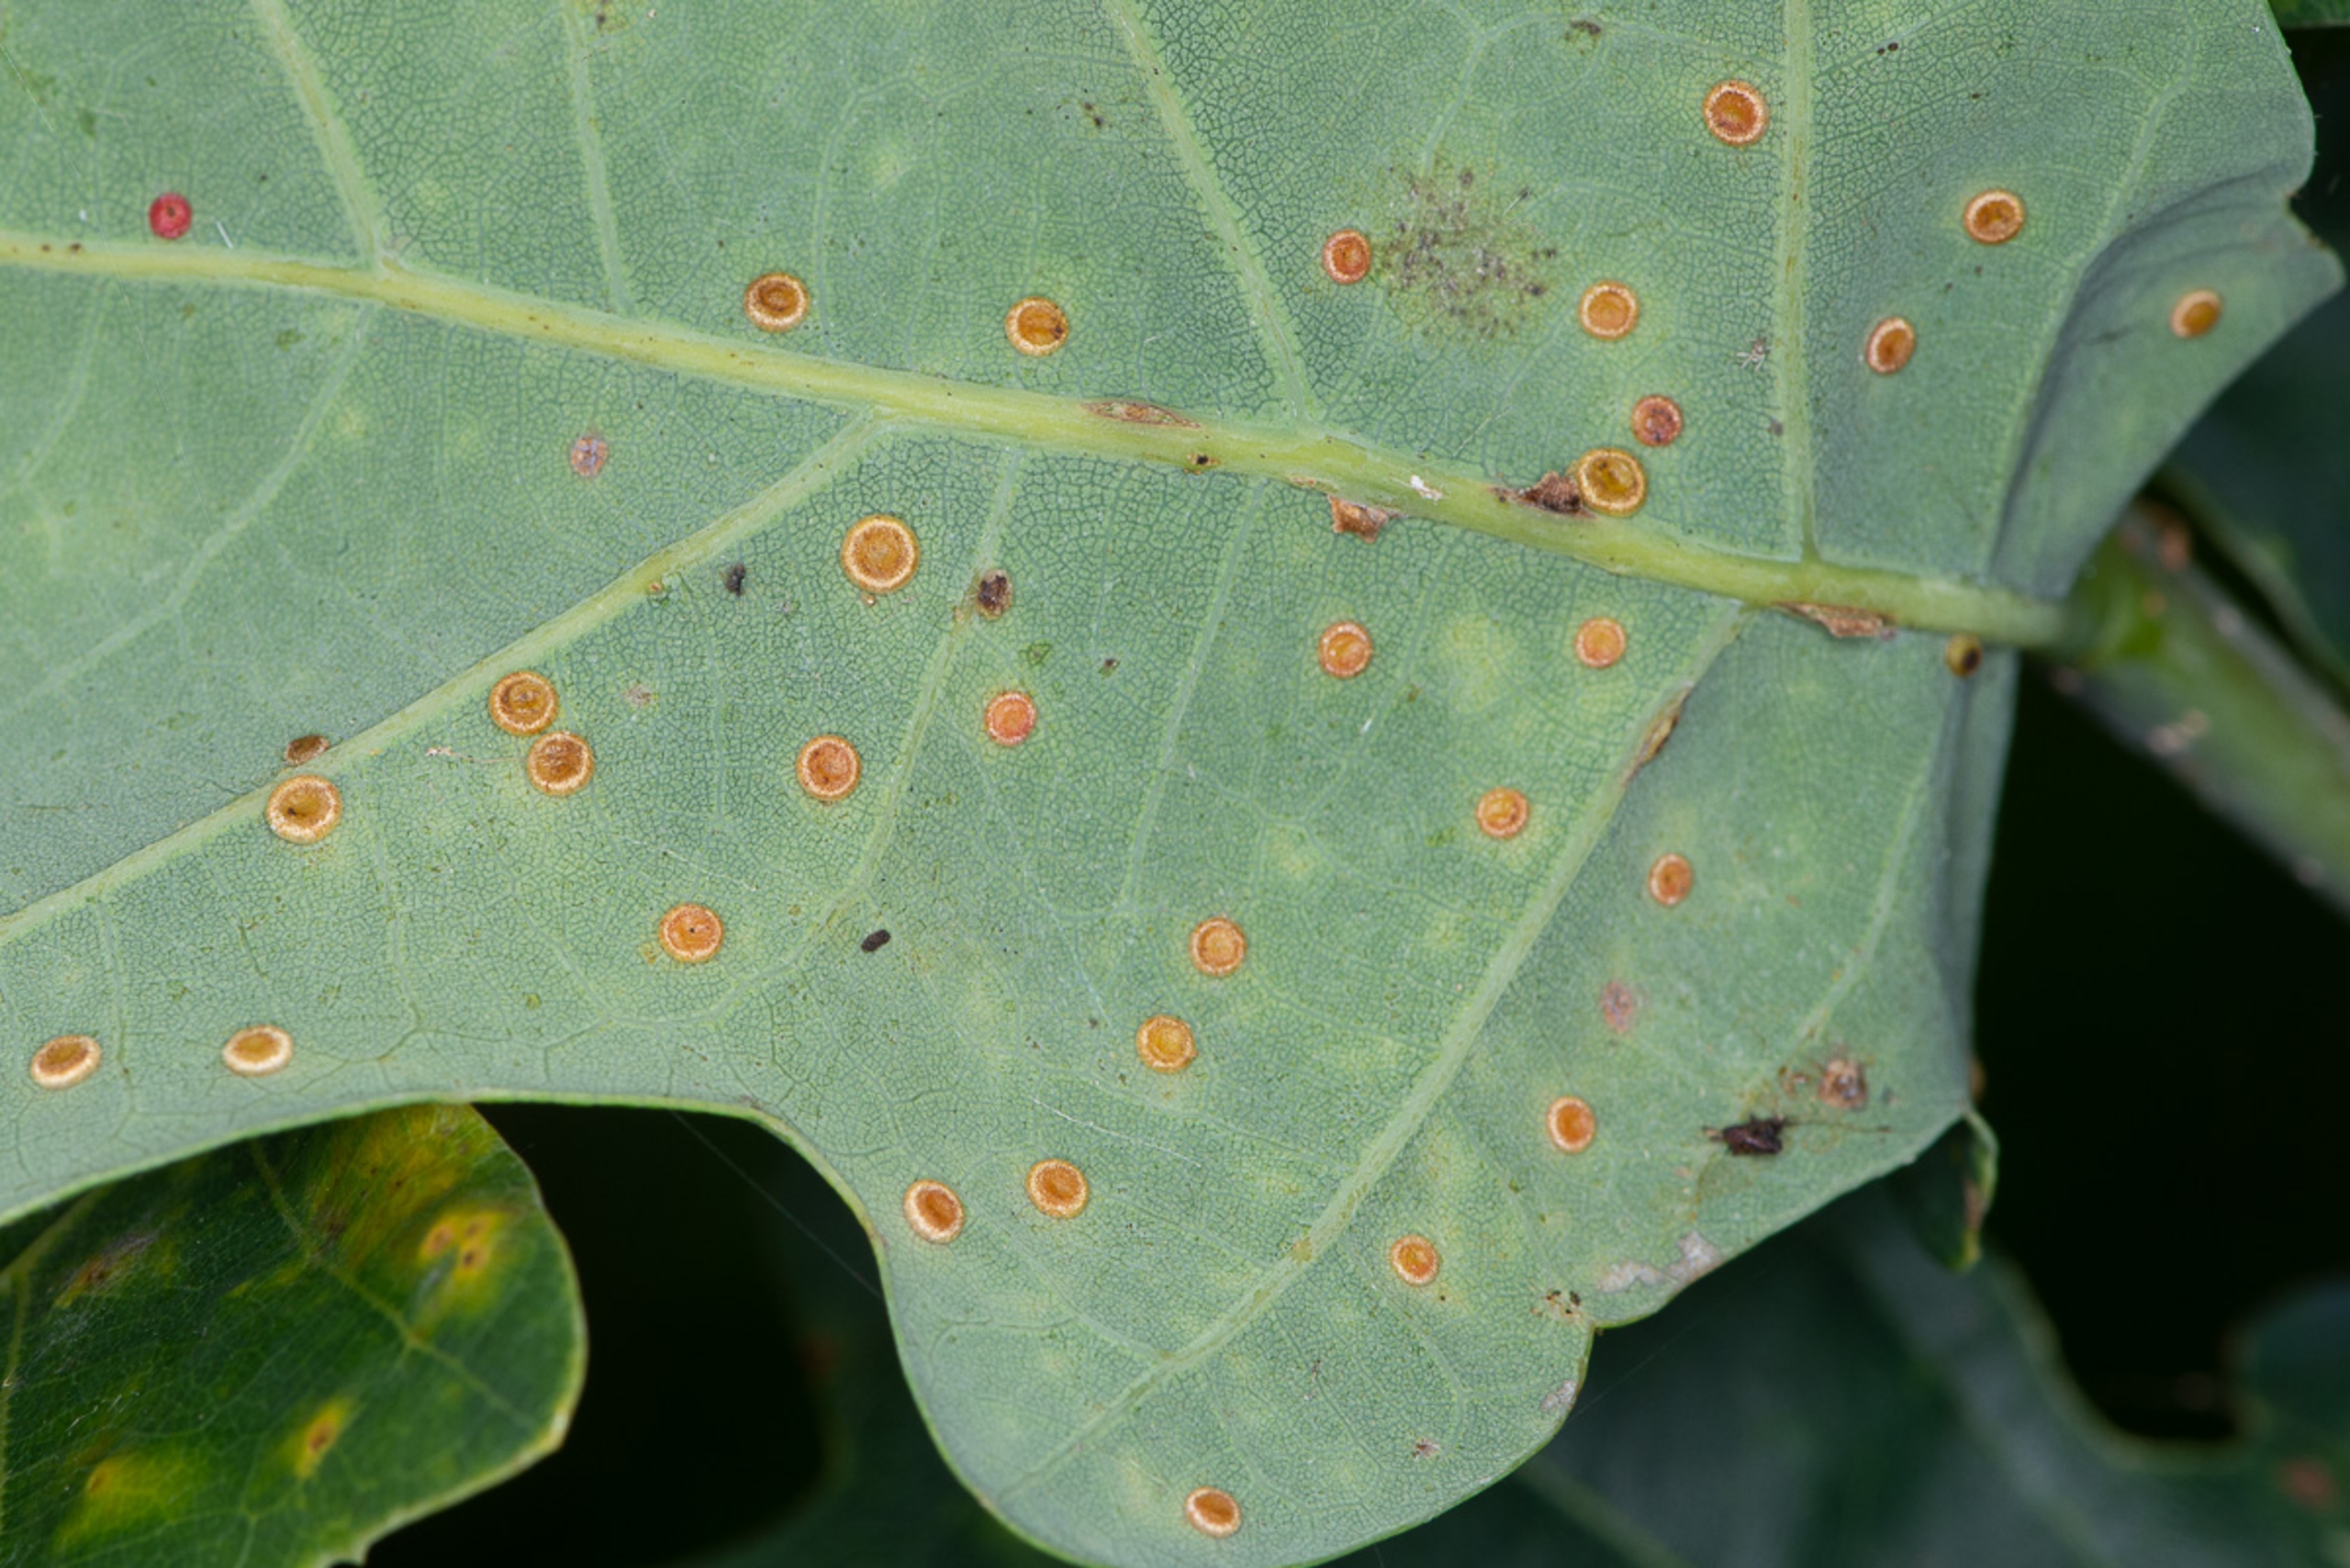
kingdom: Animalia
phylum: Arthropoda
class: Insecta
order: Hymenoptera
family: Cynipidae
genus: Neuroterus
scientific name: Neuroterus numismalis
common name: Knapgalhveps
